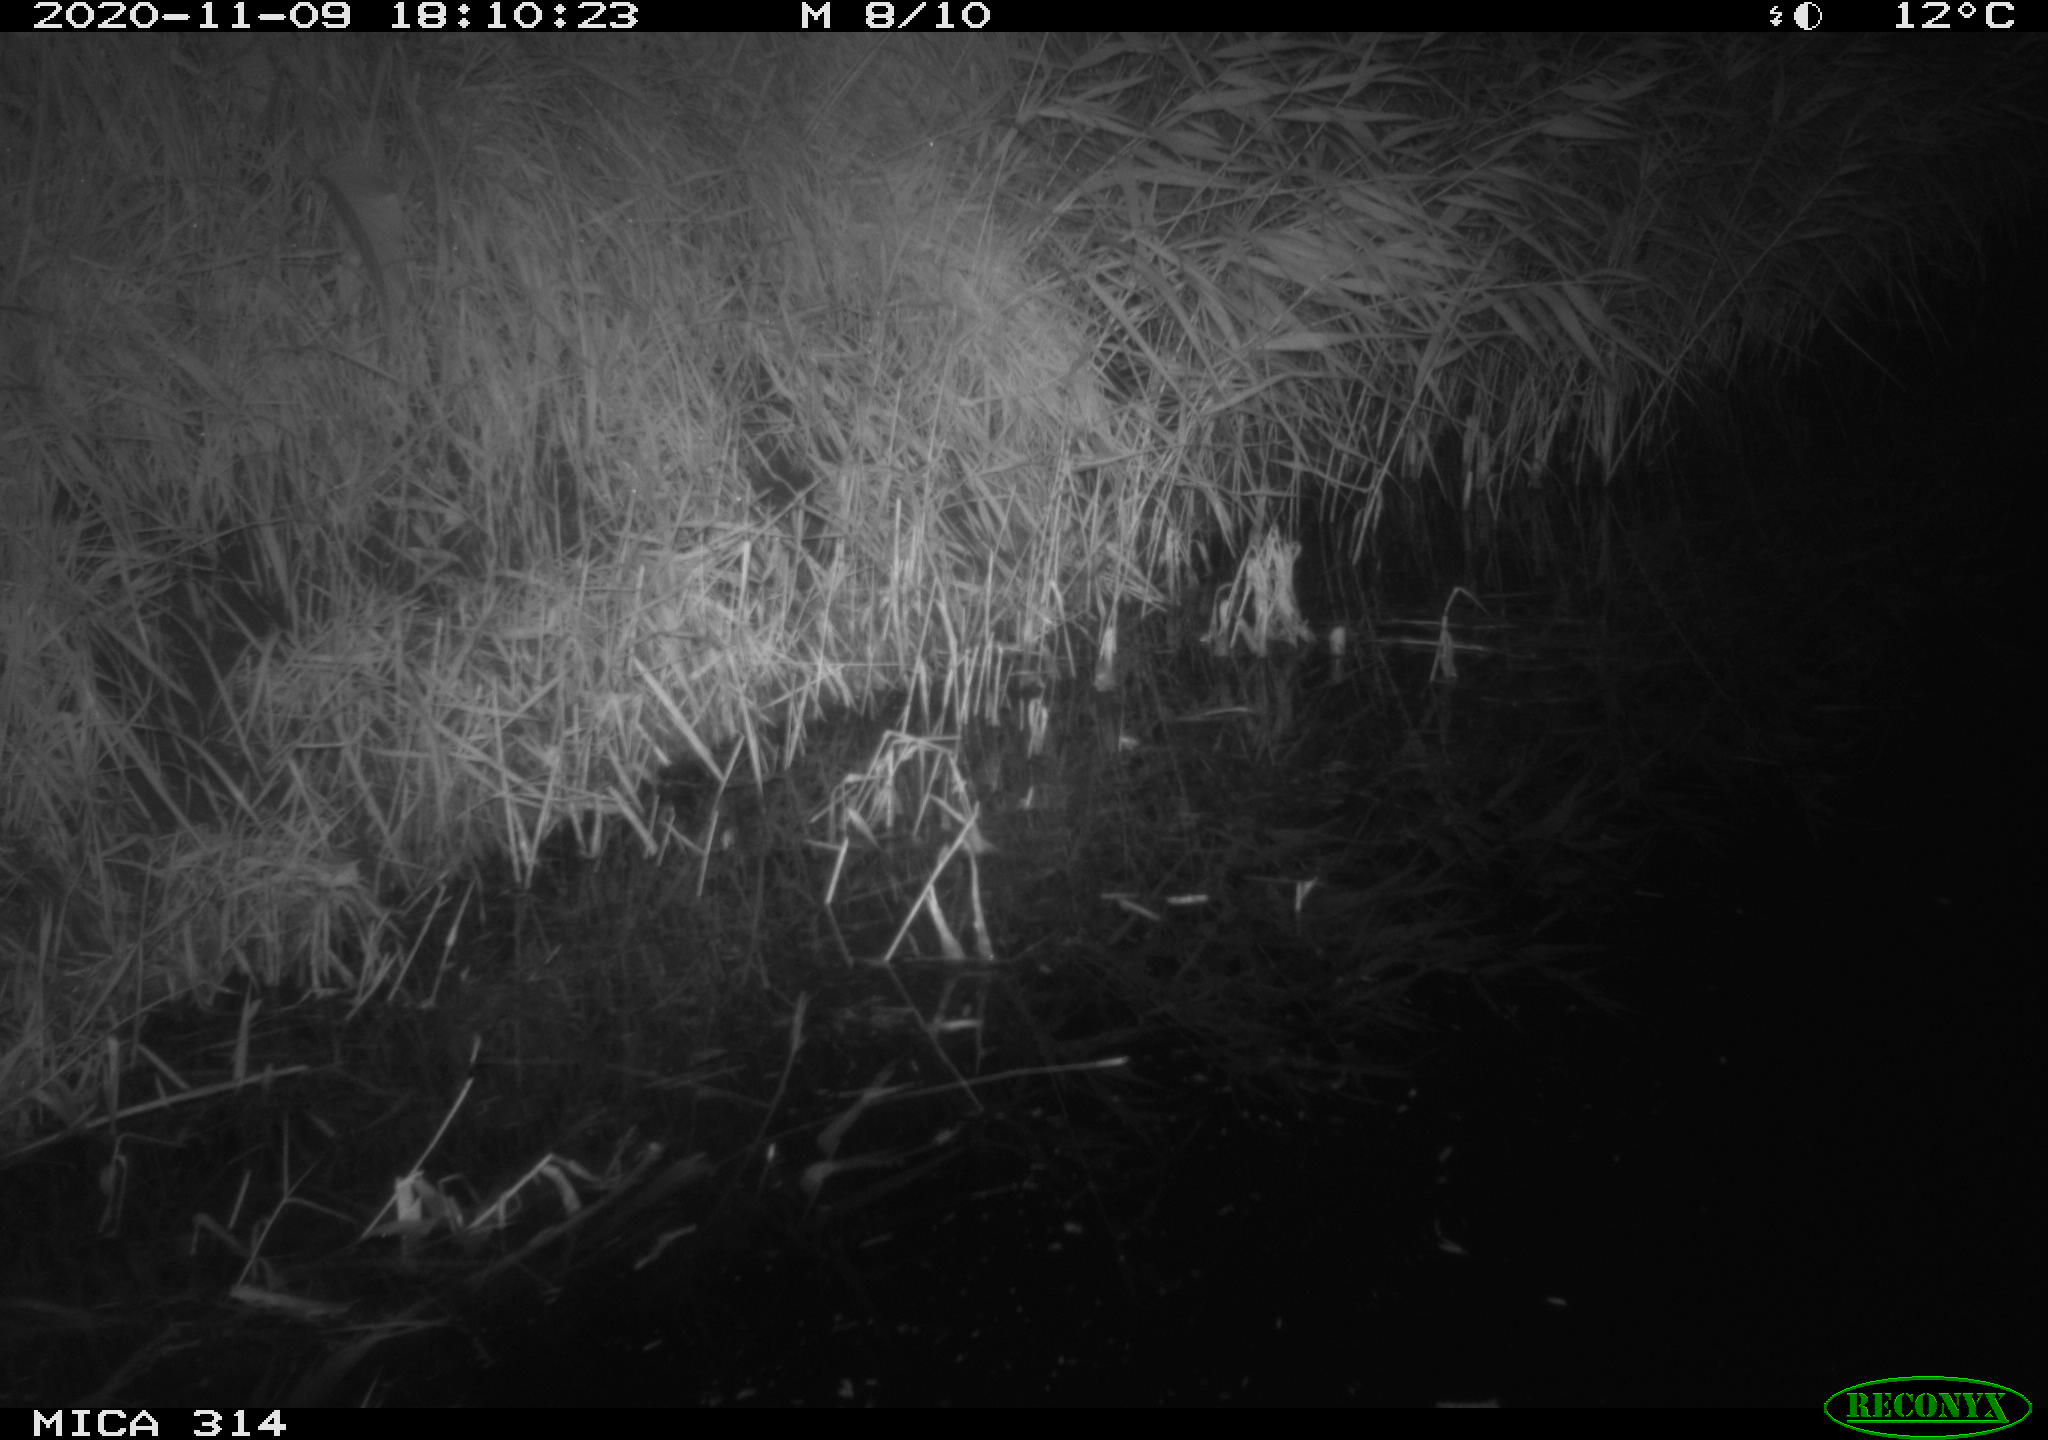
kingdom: Animalia
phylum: Chordata
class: Mammalia
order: Rodentia
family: Muridae
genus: Rattus
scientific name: Rattus norvegicus
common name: Brown rat
